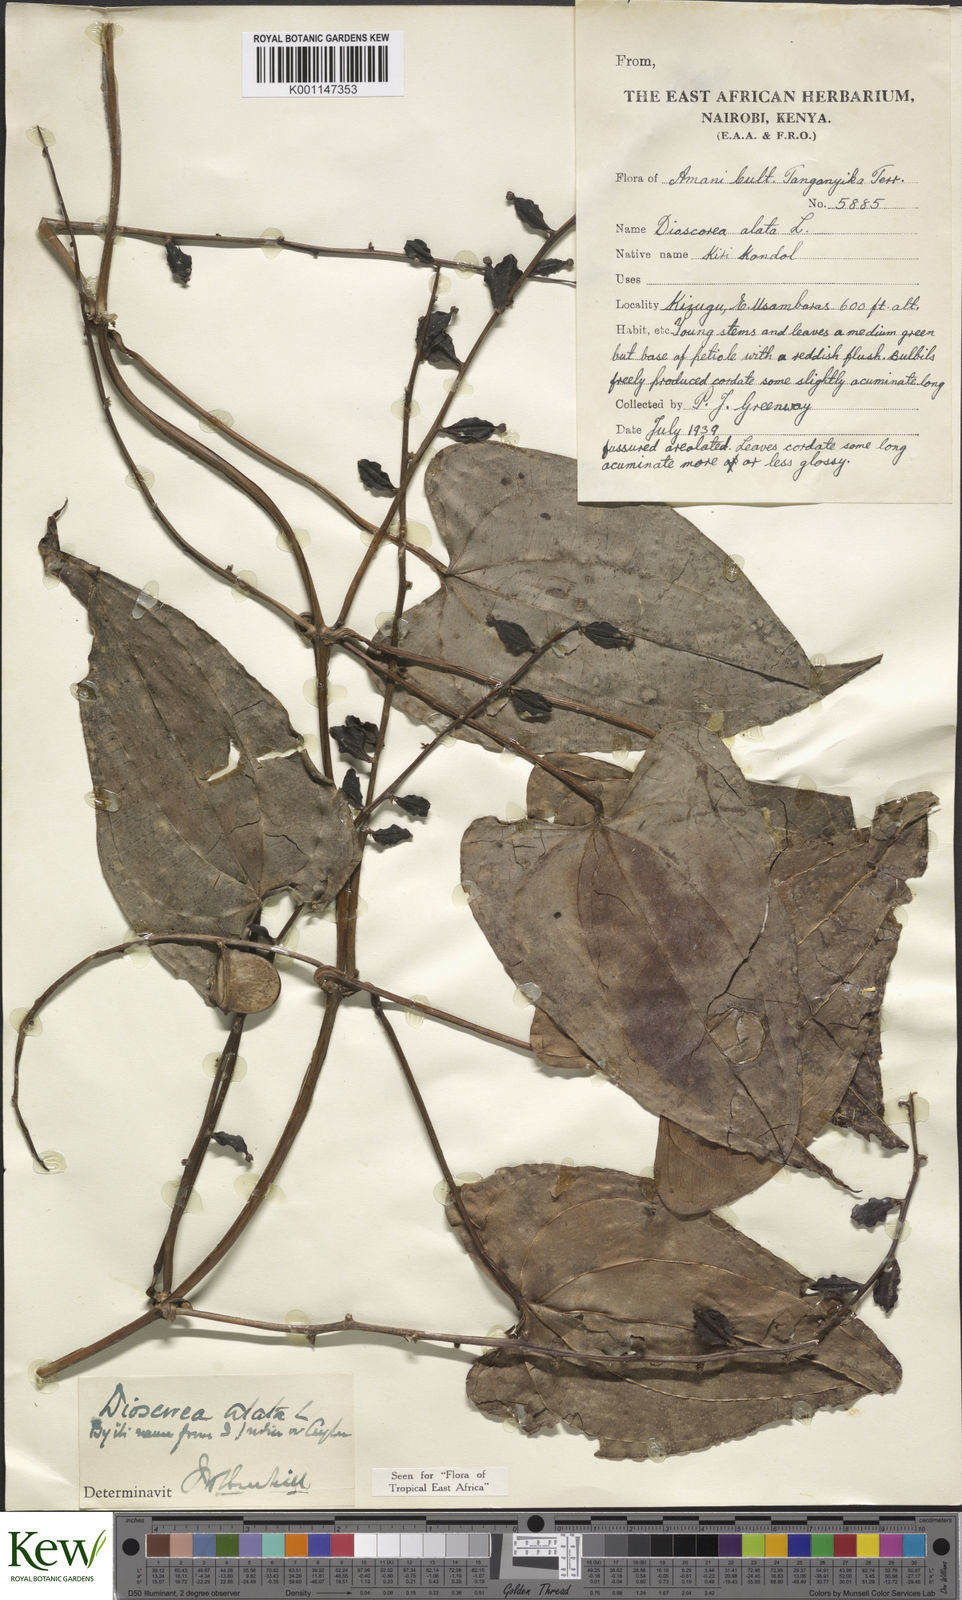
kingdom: Plantae
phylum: Tracheophyta
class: Liliopsida
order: Dioscoreales
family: Dioscoreaceae
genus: Dioscorea
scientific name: Dioscorea alata
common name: Water yam
